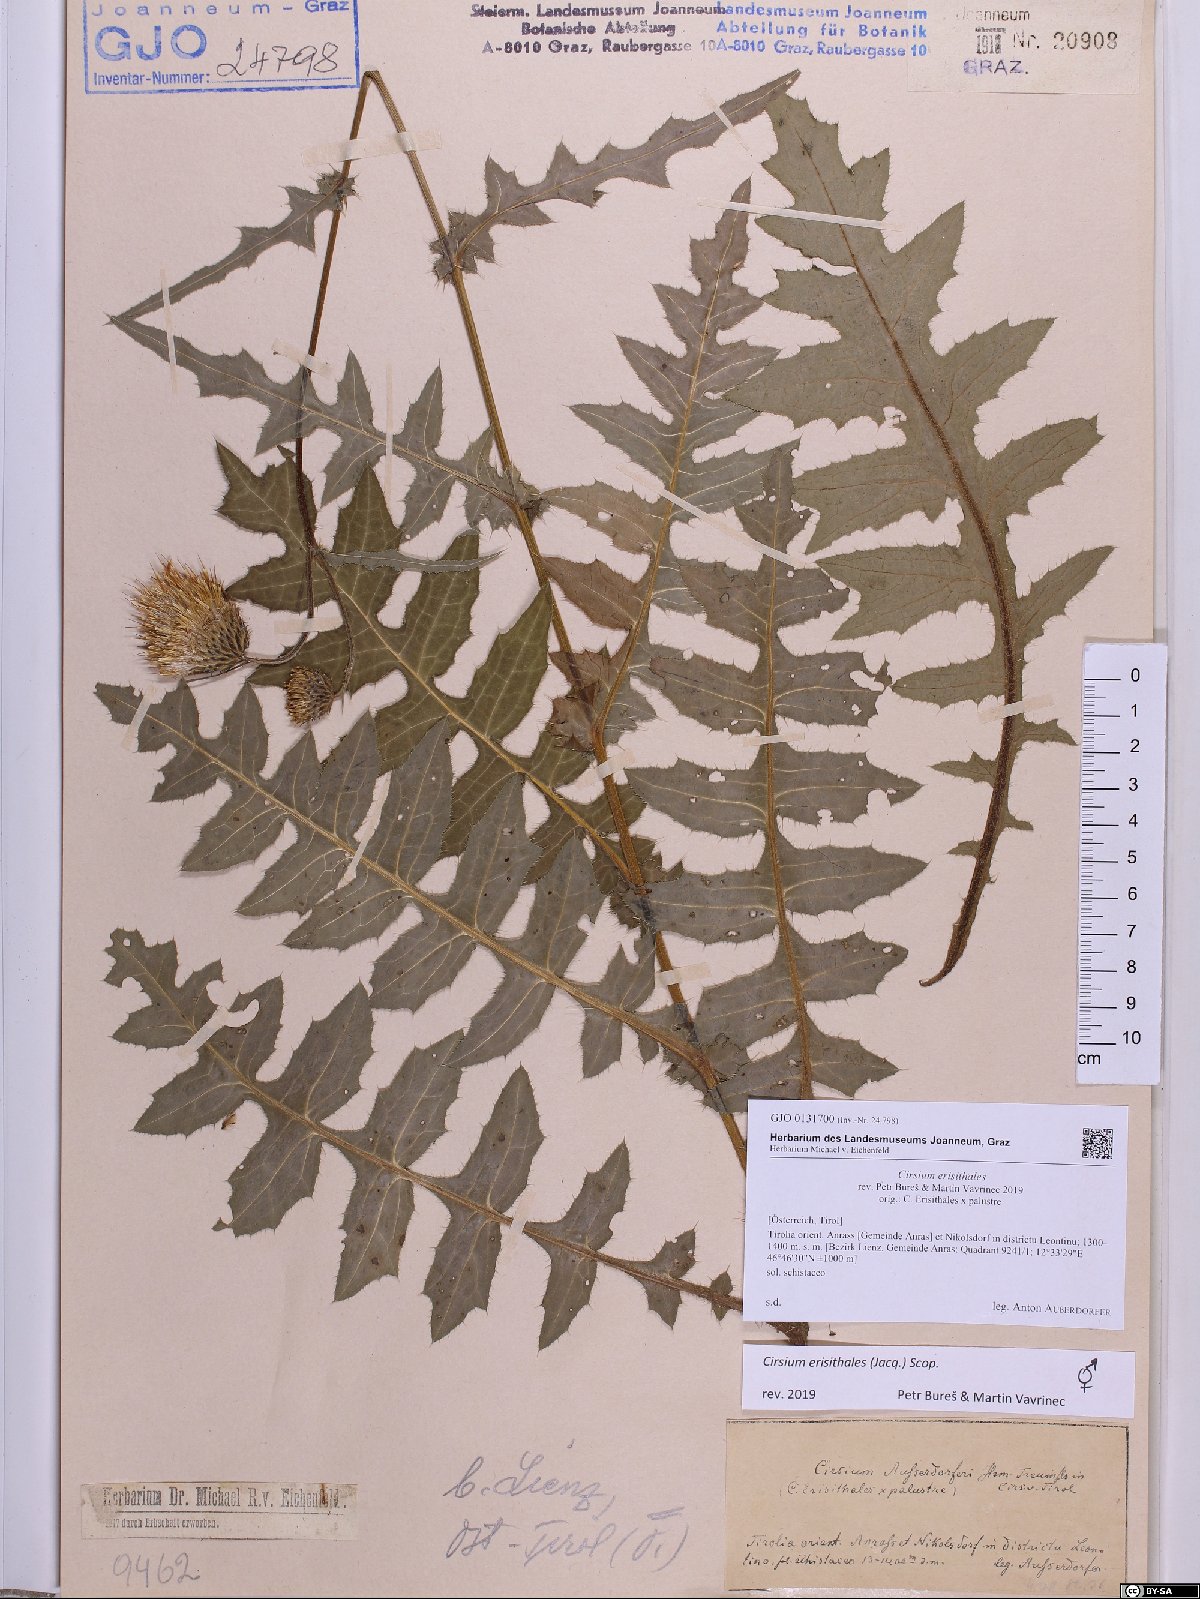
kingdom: Plantae
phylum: Tracheophyta
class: Magnoliopsida
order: Asterales
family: Asteraceae
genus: Cirsium
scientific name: Cirsium erisithales
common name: Yellow thistle
